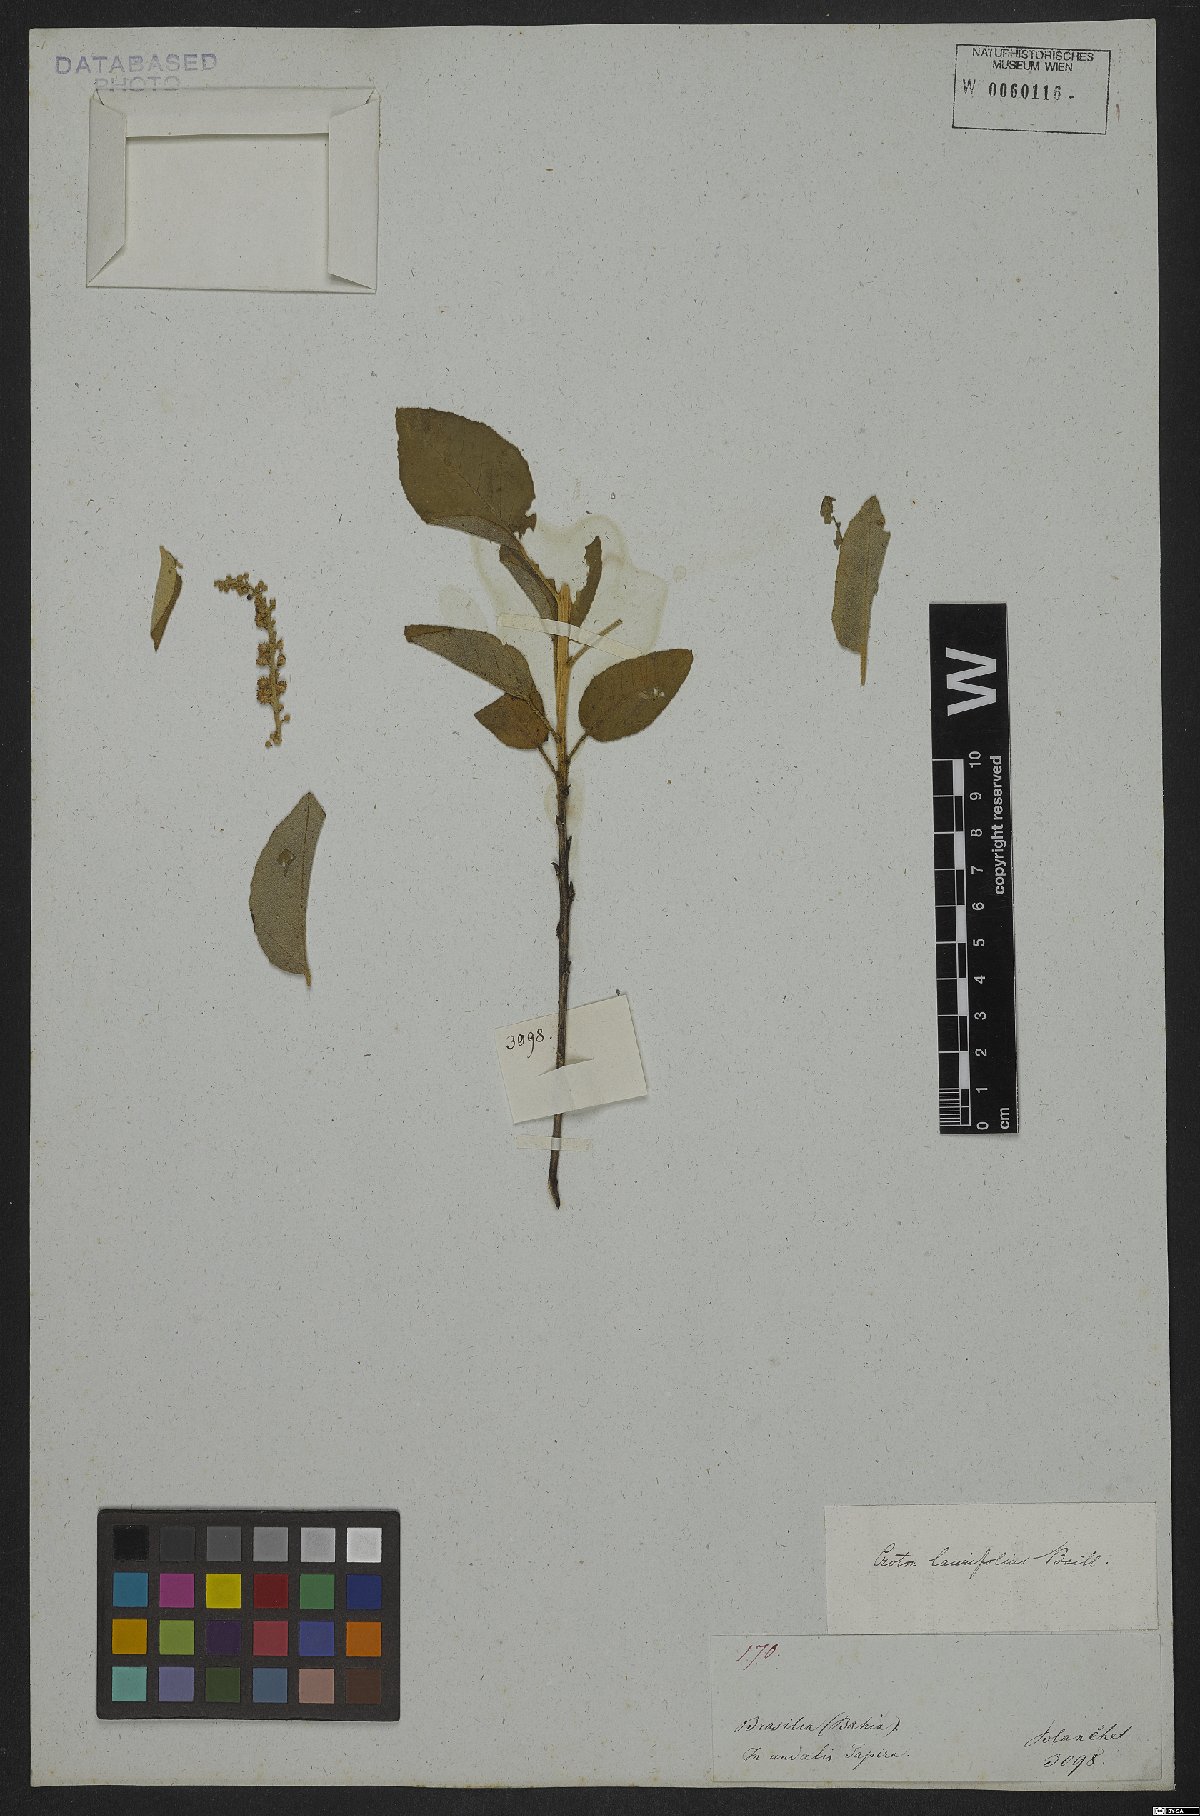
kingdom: Plantae
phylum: Tracheophyta
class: Magnoliopsida
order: Malpighiales
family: Euphorbiaceae
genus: Croton
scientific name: Croton laurifolius
